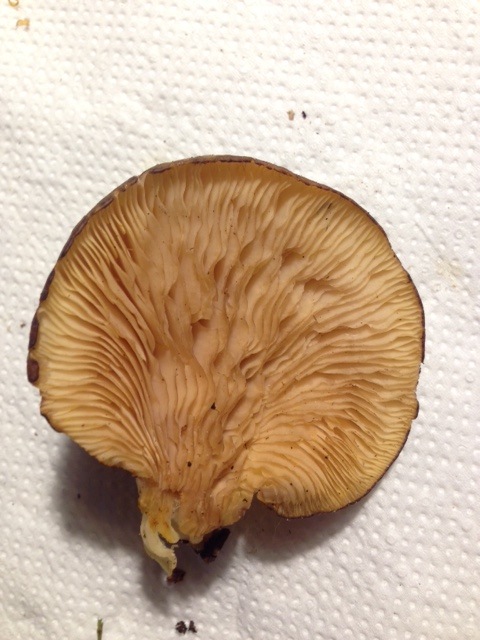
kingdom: Fungi
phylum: Basidiomycota
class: Agaricomycetes
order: Agaricales
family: Sarcomyxaceae
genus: Sarcomyxa
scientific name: Sarcomyxa serotina
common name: gummihat
